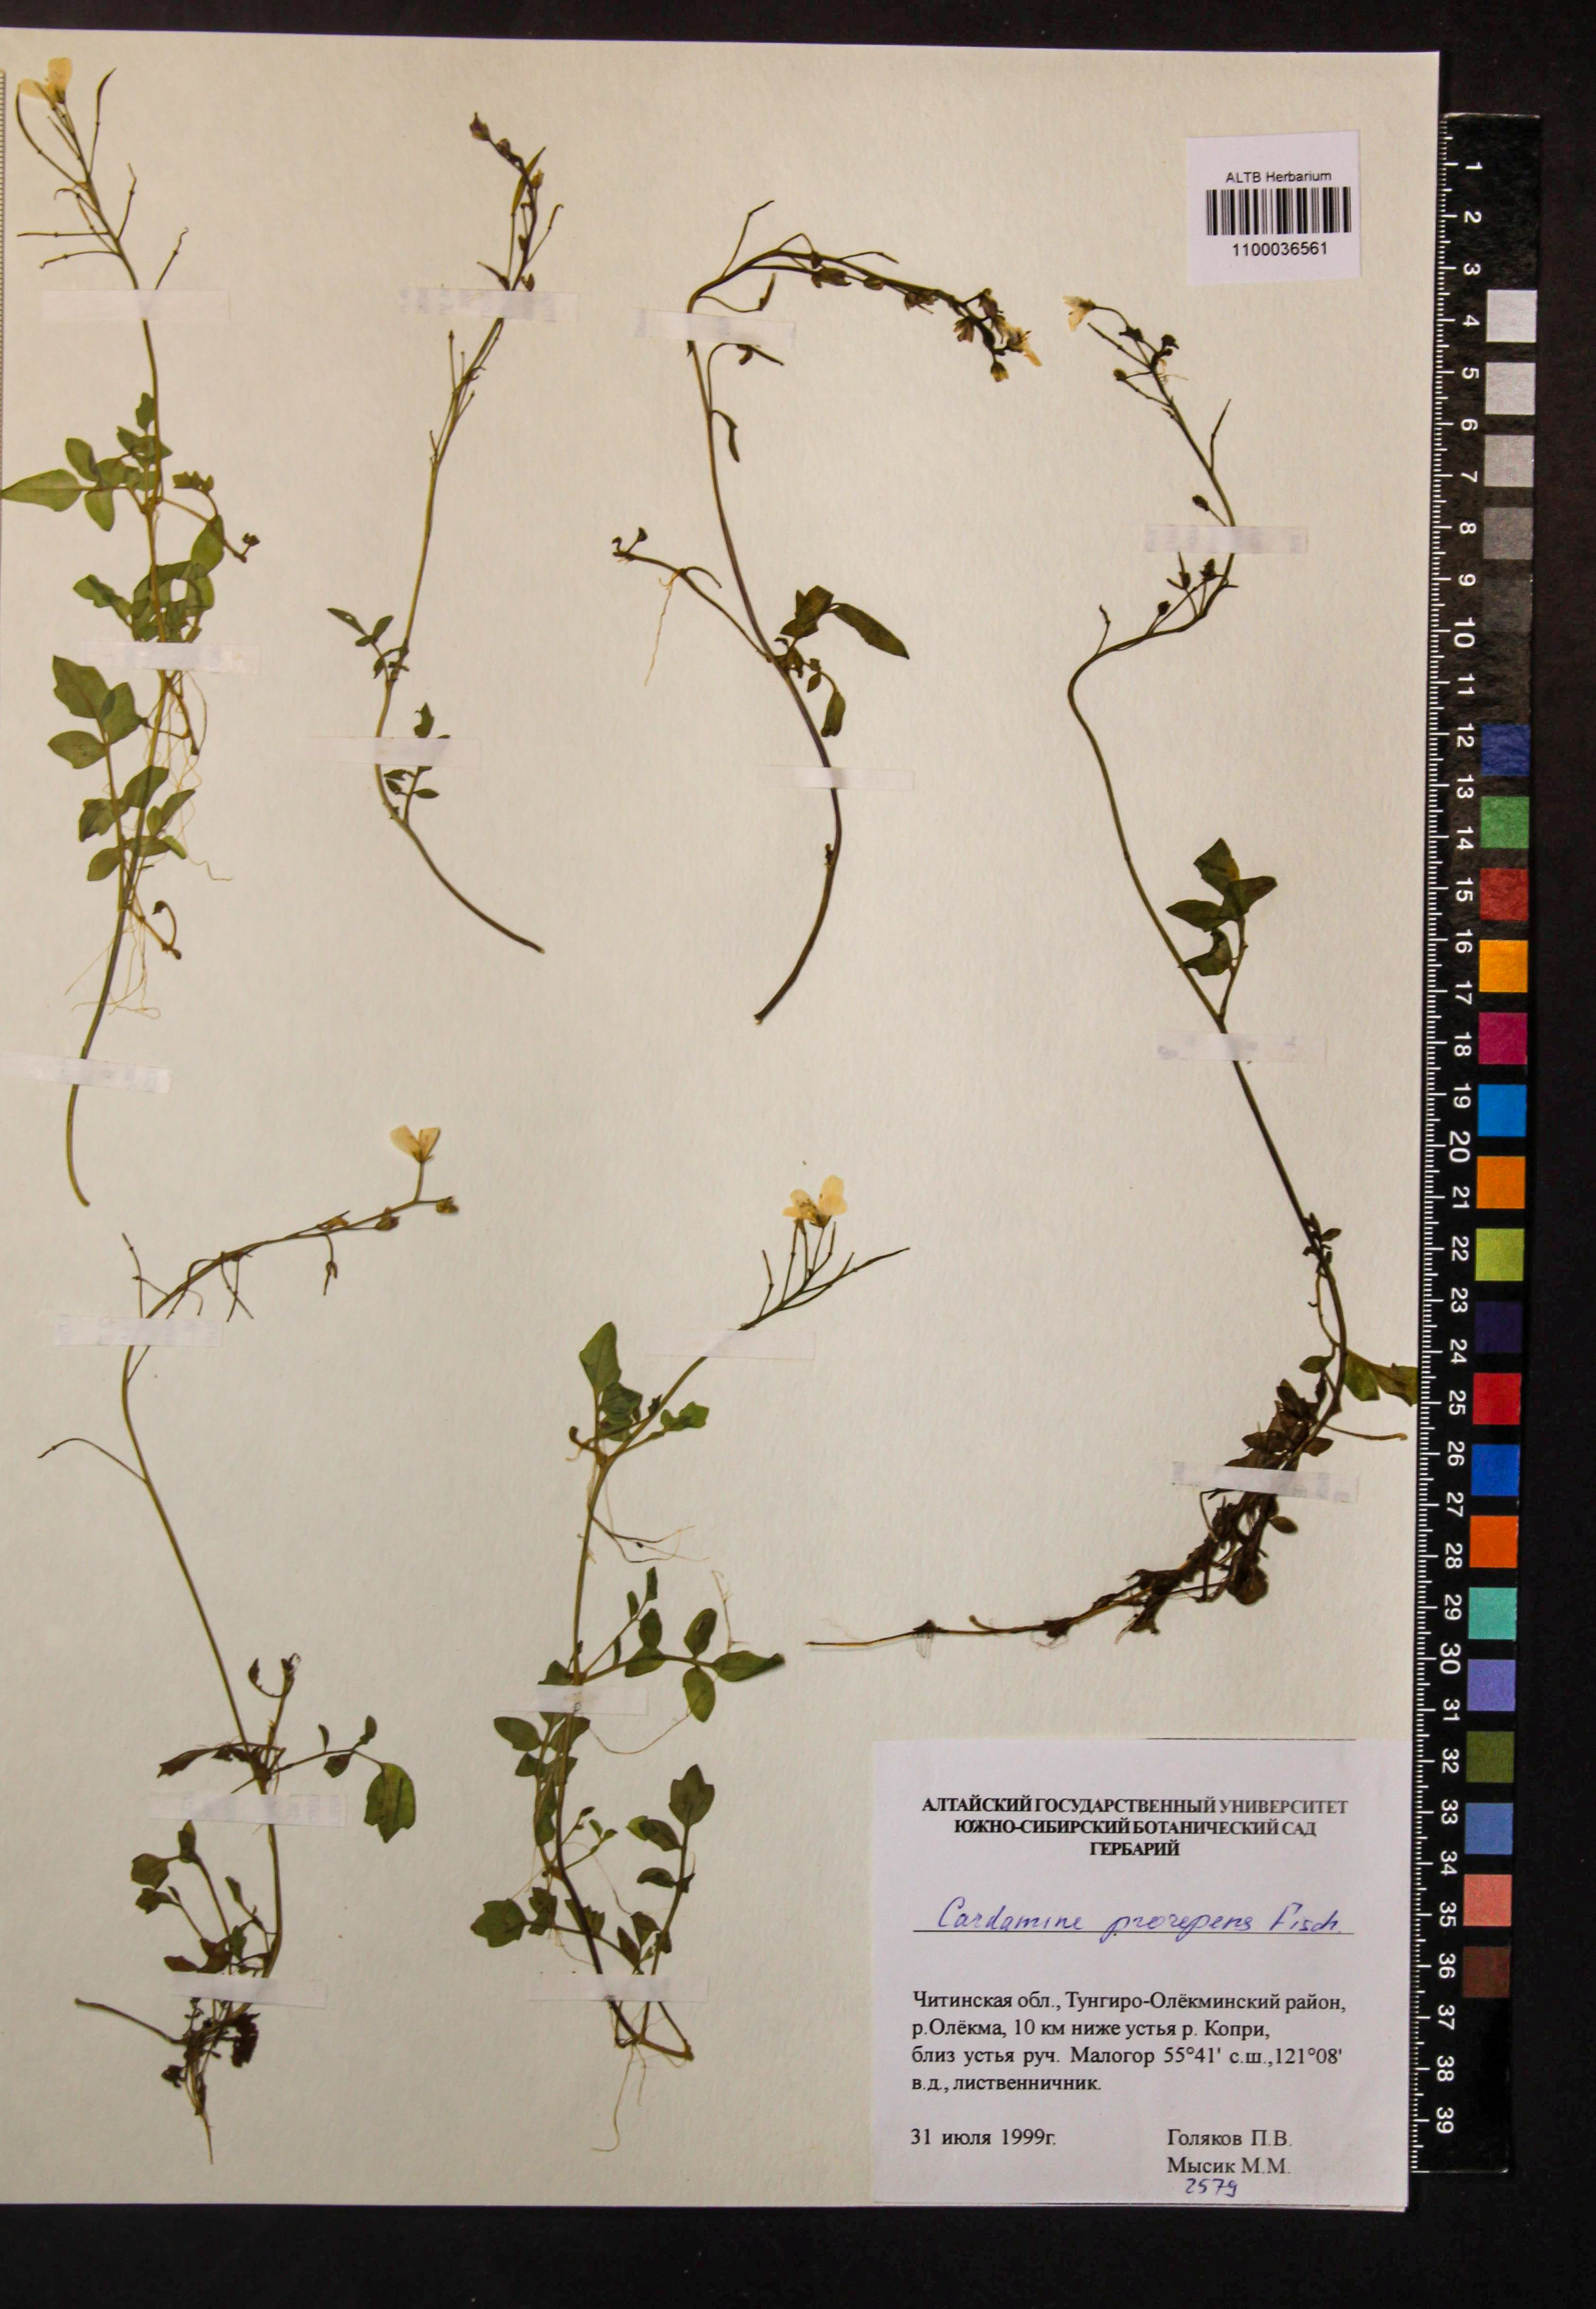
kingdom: Plantae
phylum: Tracheophyta
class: Magnoliopsida
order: Brassicales
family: Brassicaceae
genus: Cardamine
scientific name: Cardamine prorepens
